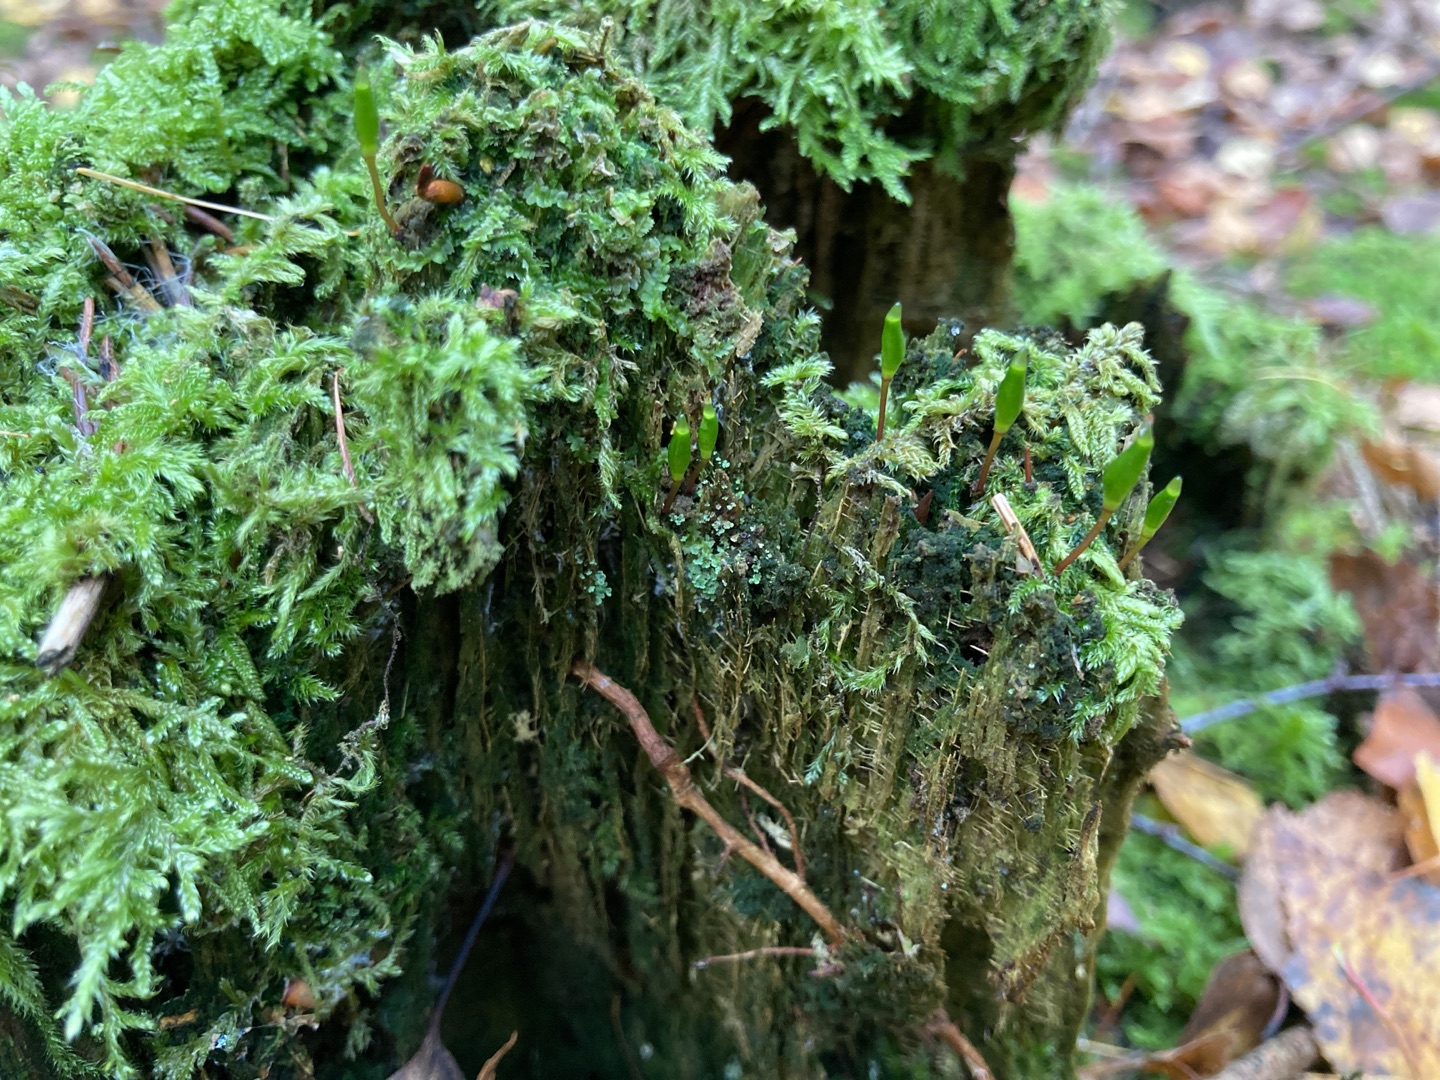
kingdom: Plantae
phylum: Bryophyta
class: Bryopsida
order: Buxbaumiales
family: Buxbaumiaceae
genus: Buxbaumia
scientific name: Buxbaumia viridis
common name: Grøn buxbaumia
